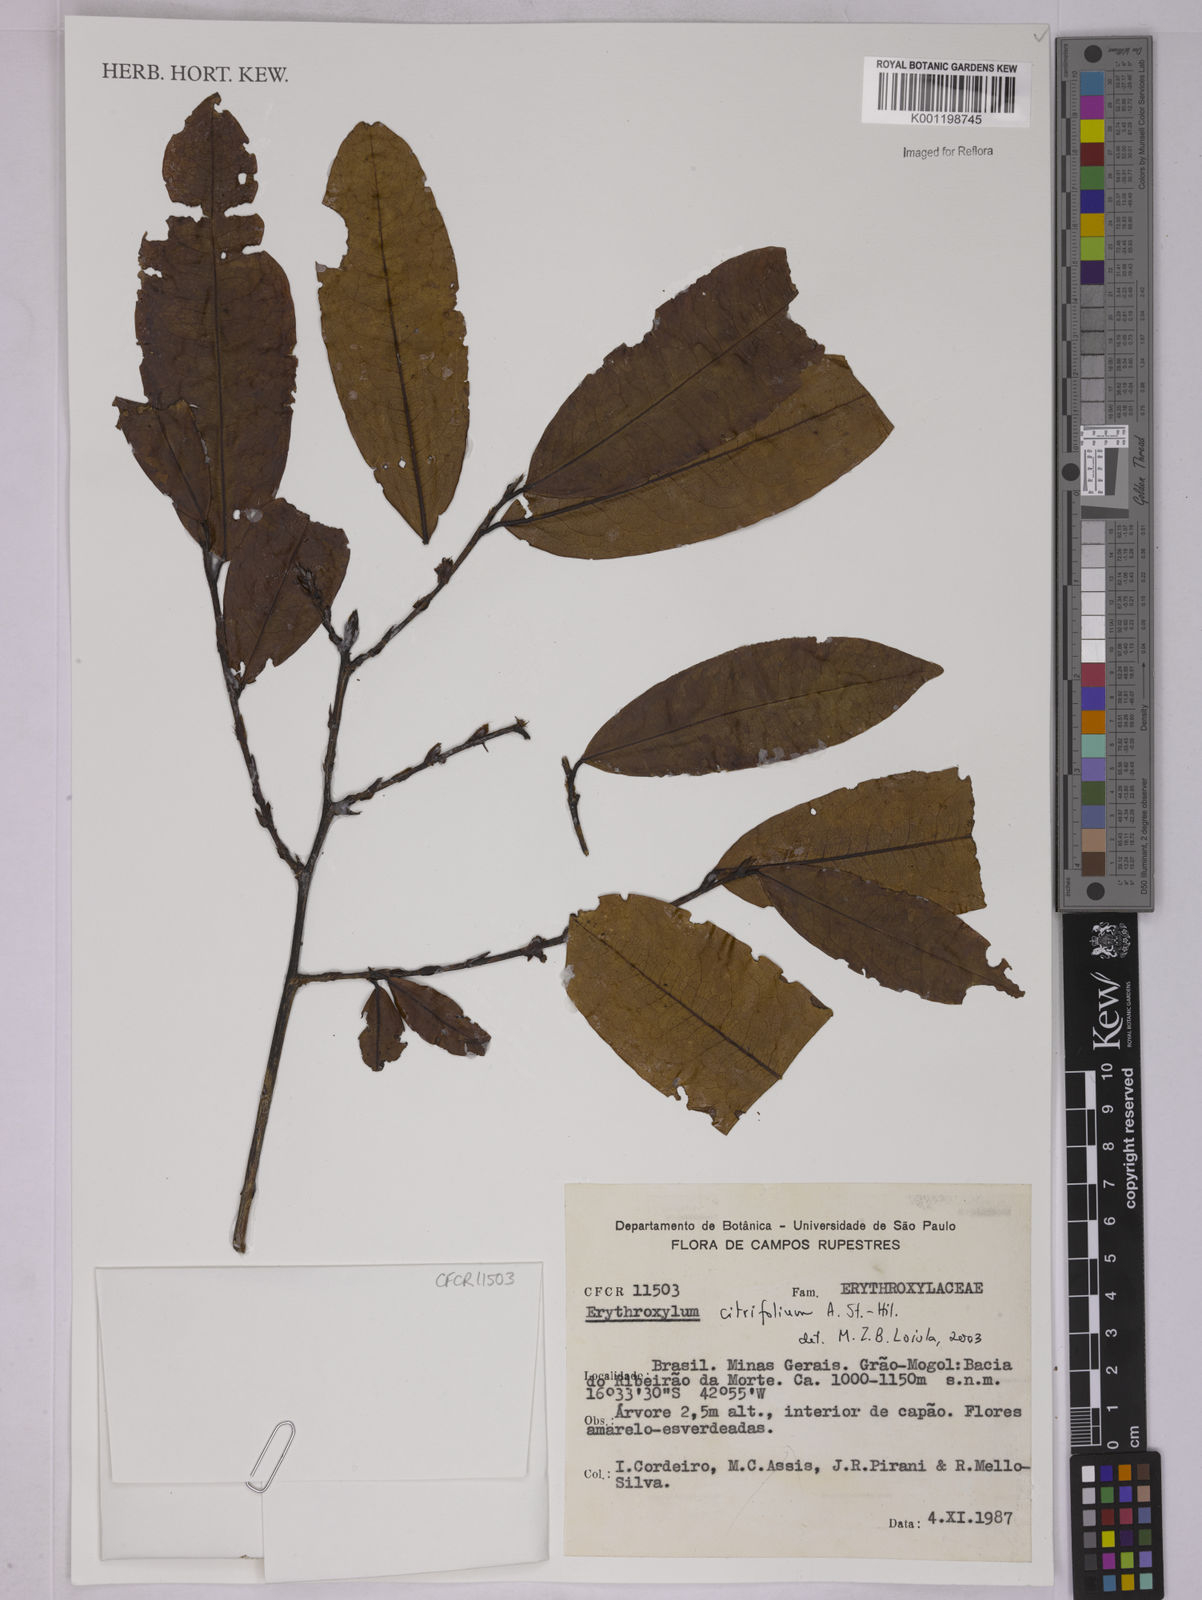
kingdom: Plantae
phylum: Tracheophyta
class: Magnoliopsida
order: Malpighiales
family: Erythroxylaceae
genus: Erythroxylum
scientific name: Erythroxylum citrifolium
